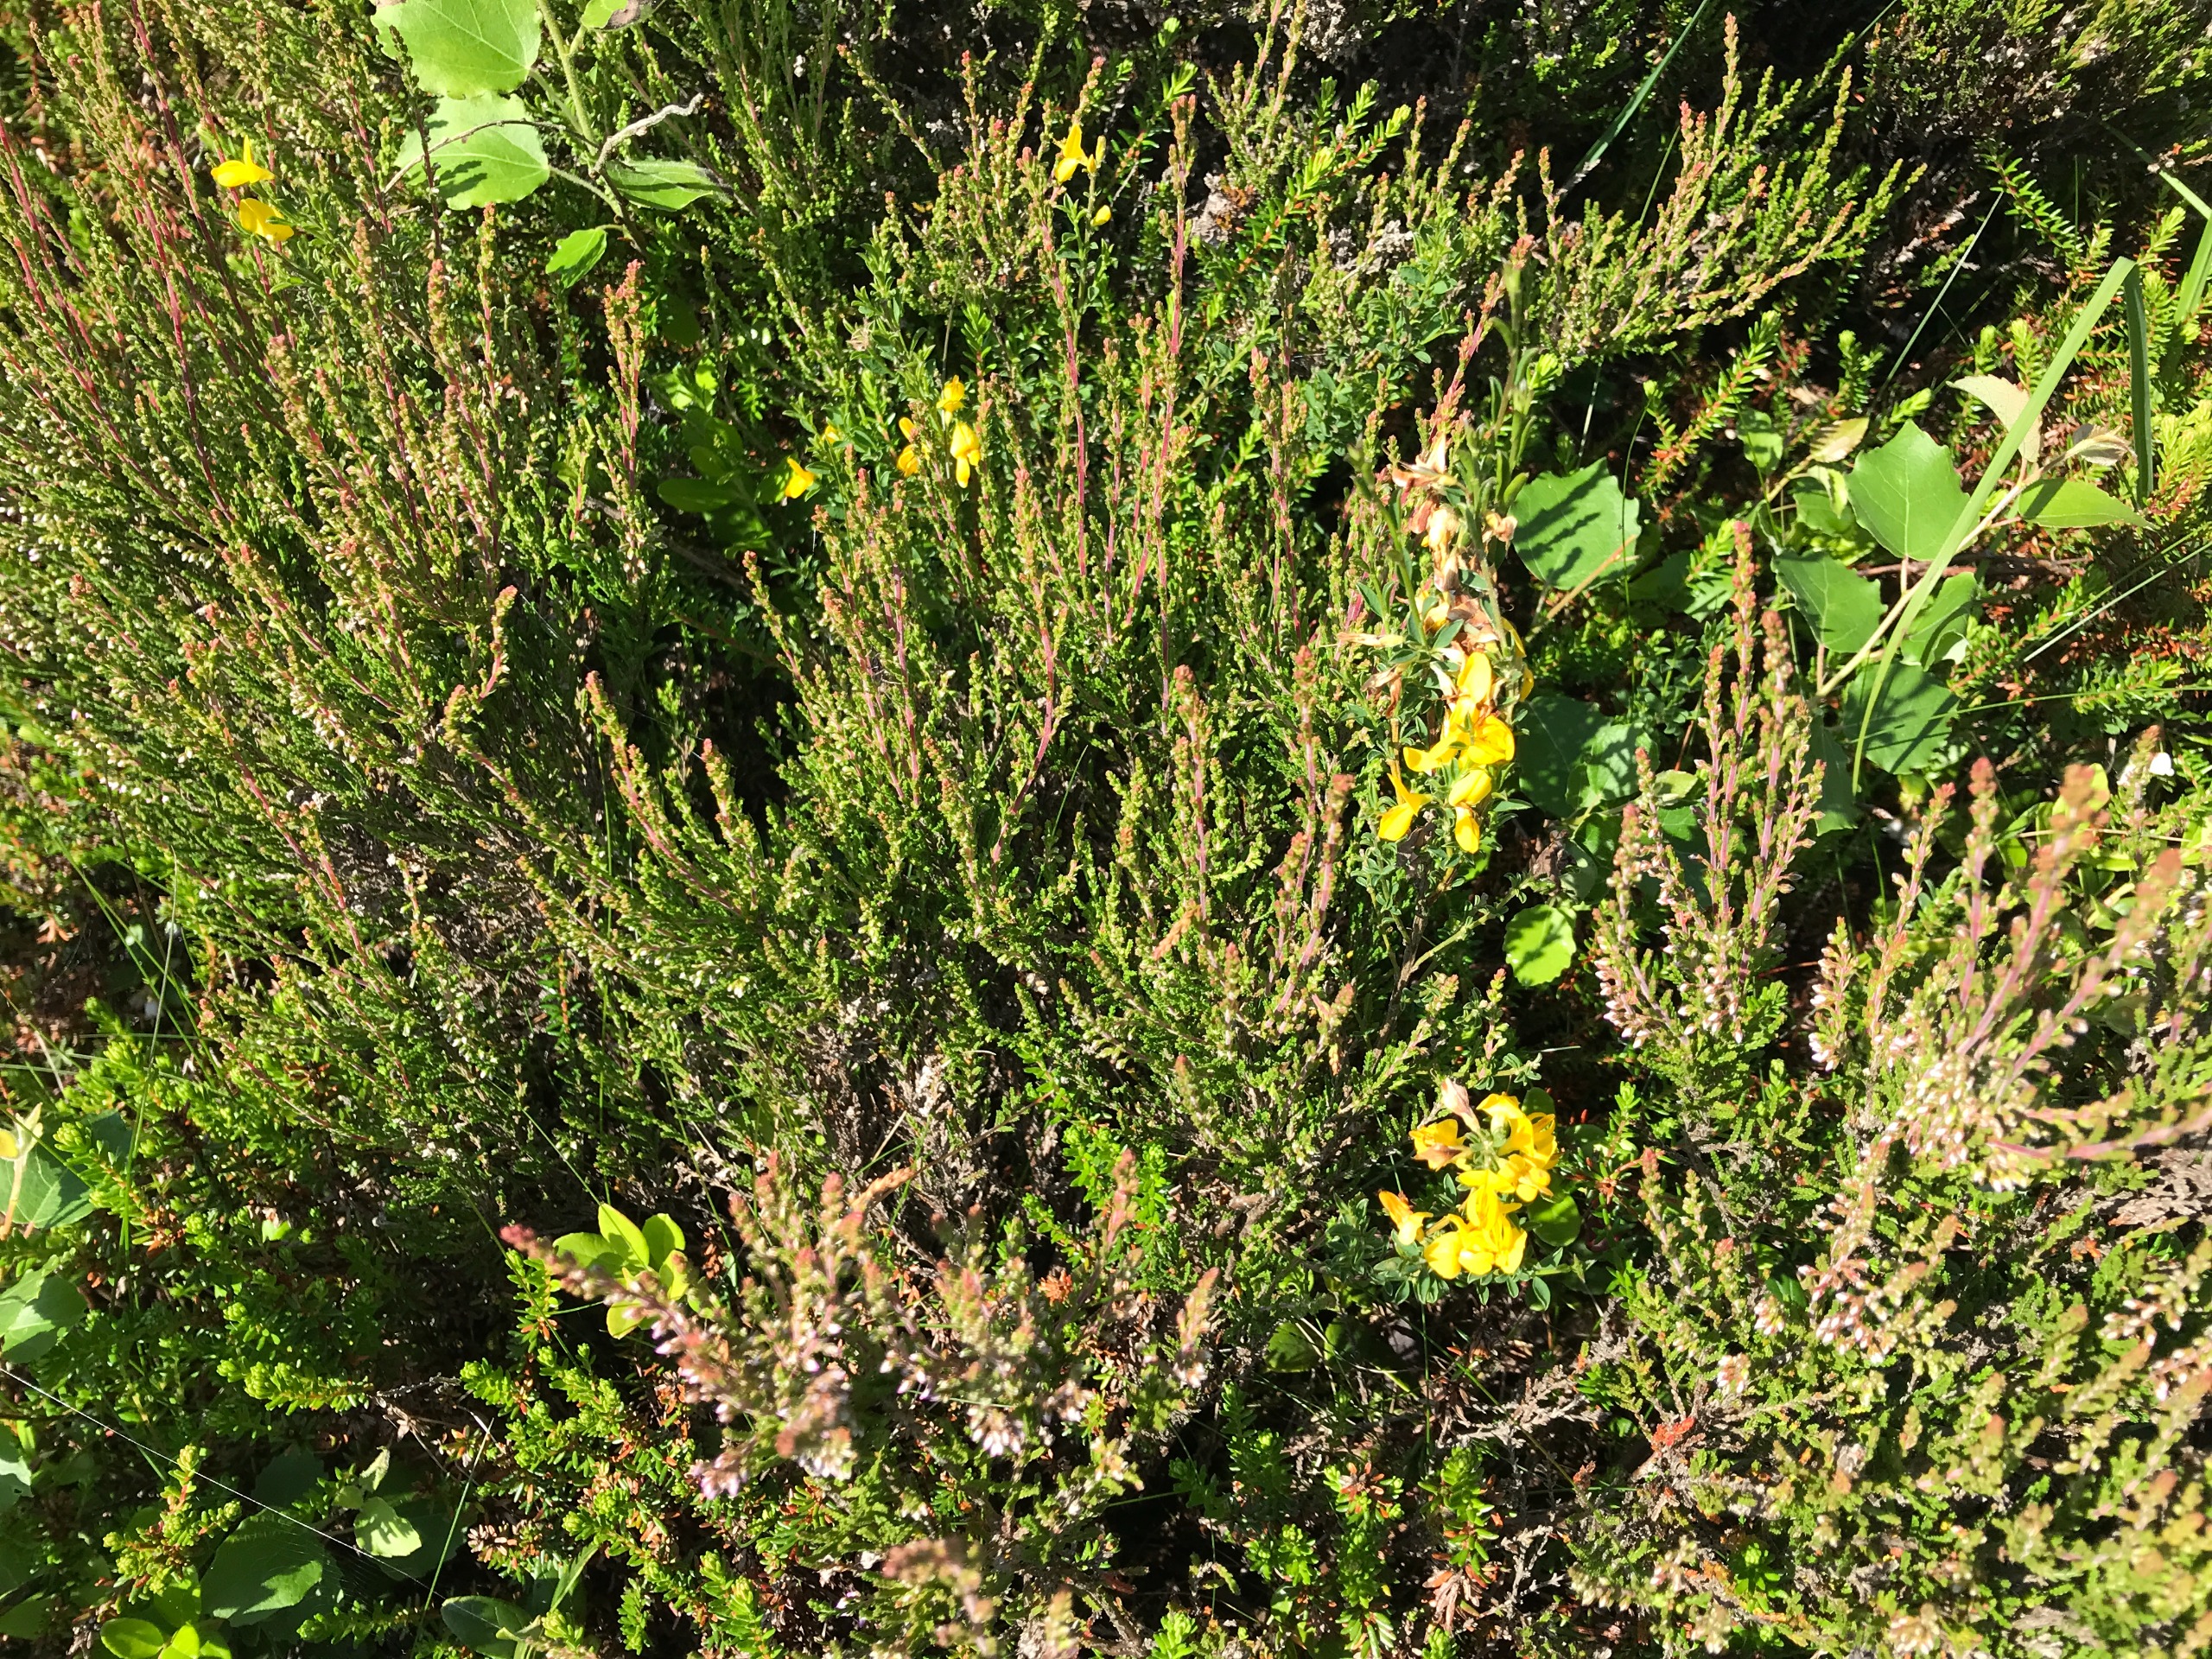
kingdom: Plantae
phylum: Tracheophyta
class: Magnoliopsida
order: Ericales
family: Ericaceae
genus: Calluna
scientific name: Calluna vulgaris
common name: Hedelyng
